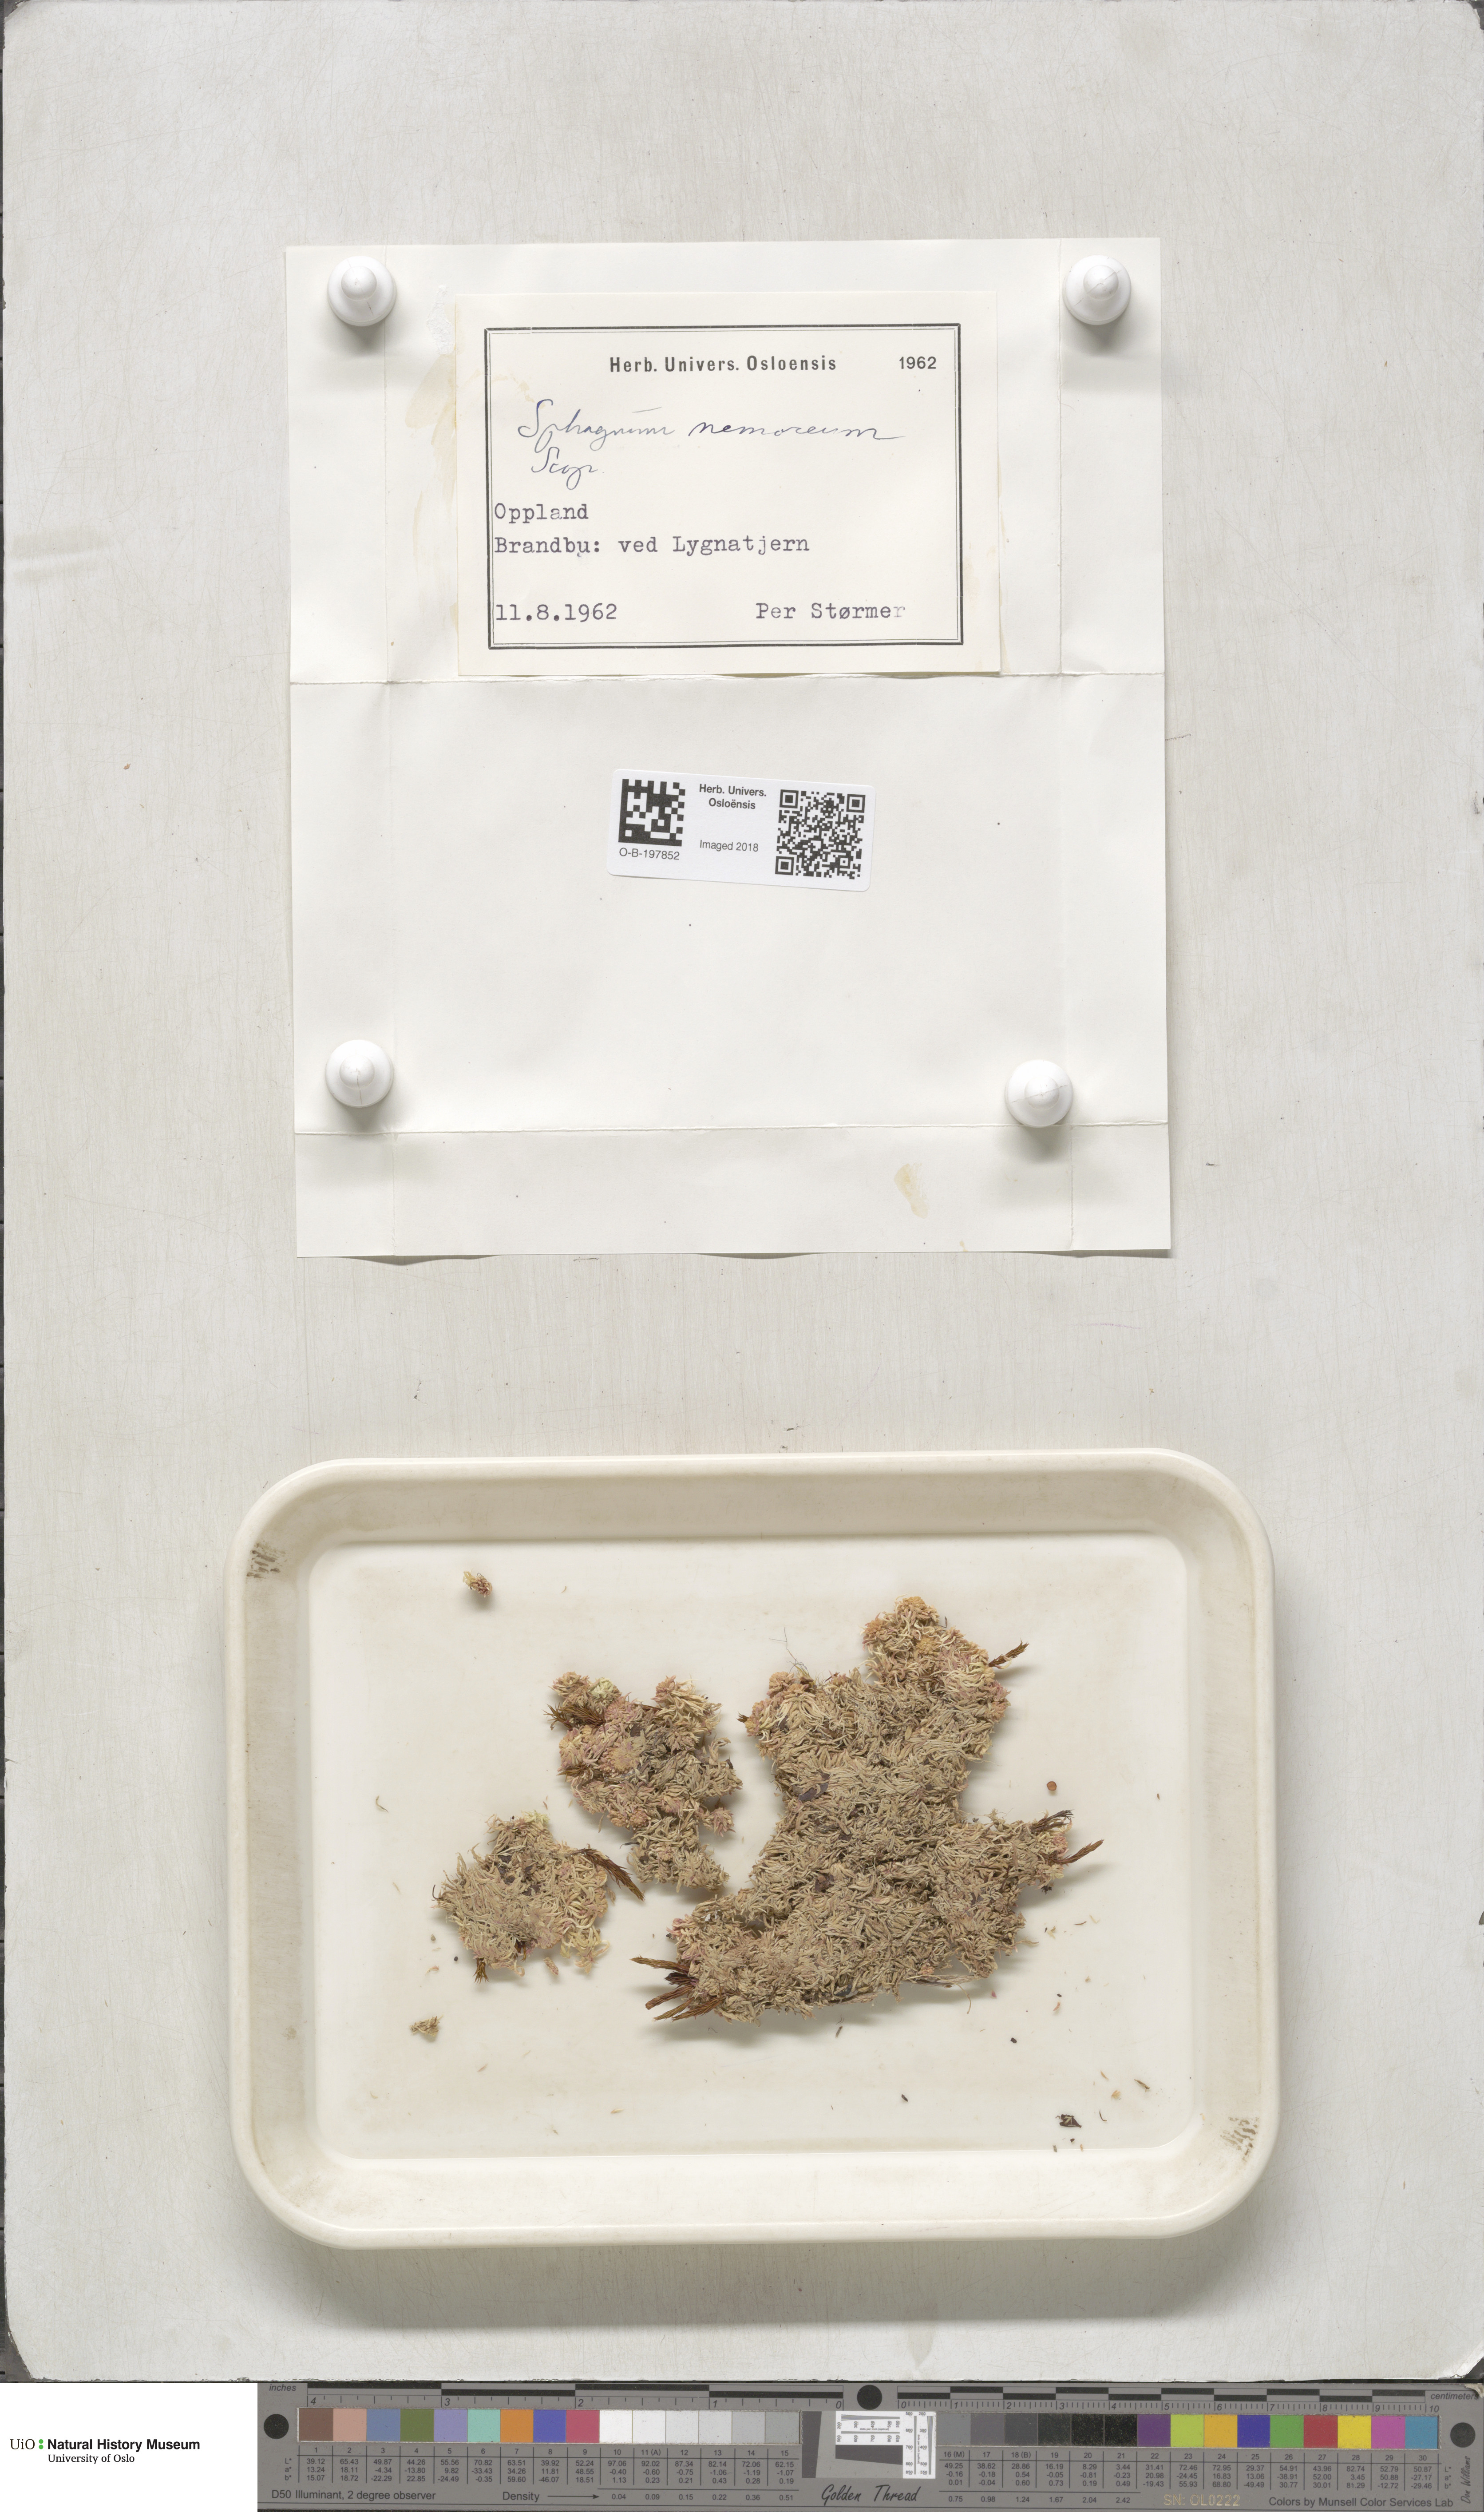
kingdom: Plantae
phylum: Bryophyta
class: Sphagnopsida
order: Sphagnales
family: Sphagnaceae
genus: Sphagnum
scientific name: Sphagnum capillifolium
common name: Small red peat moss
